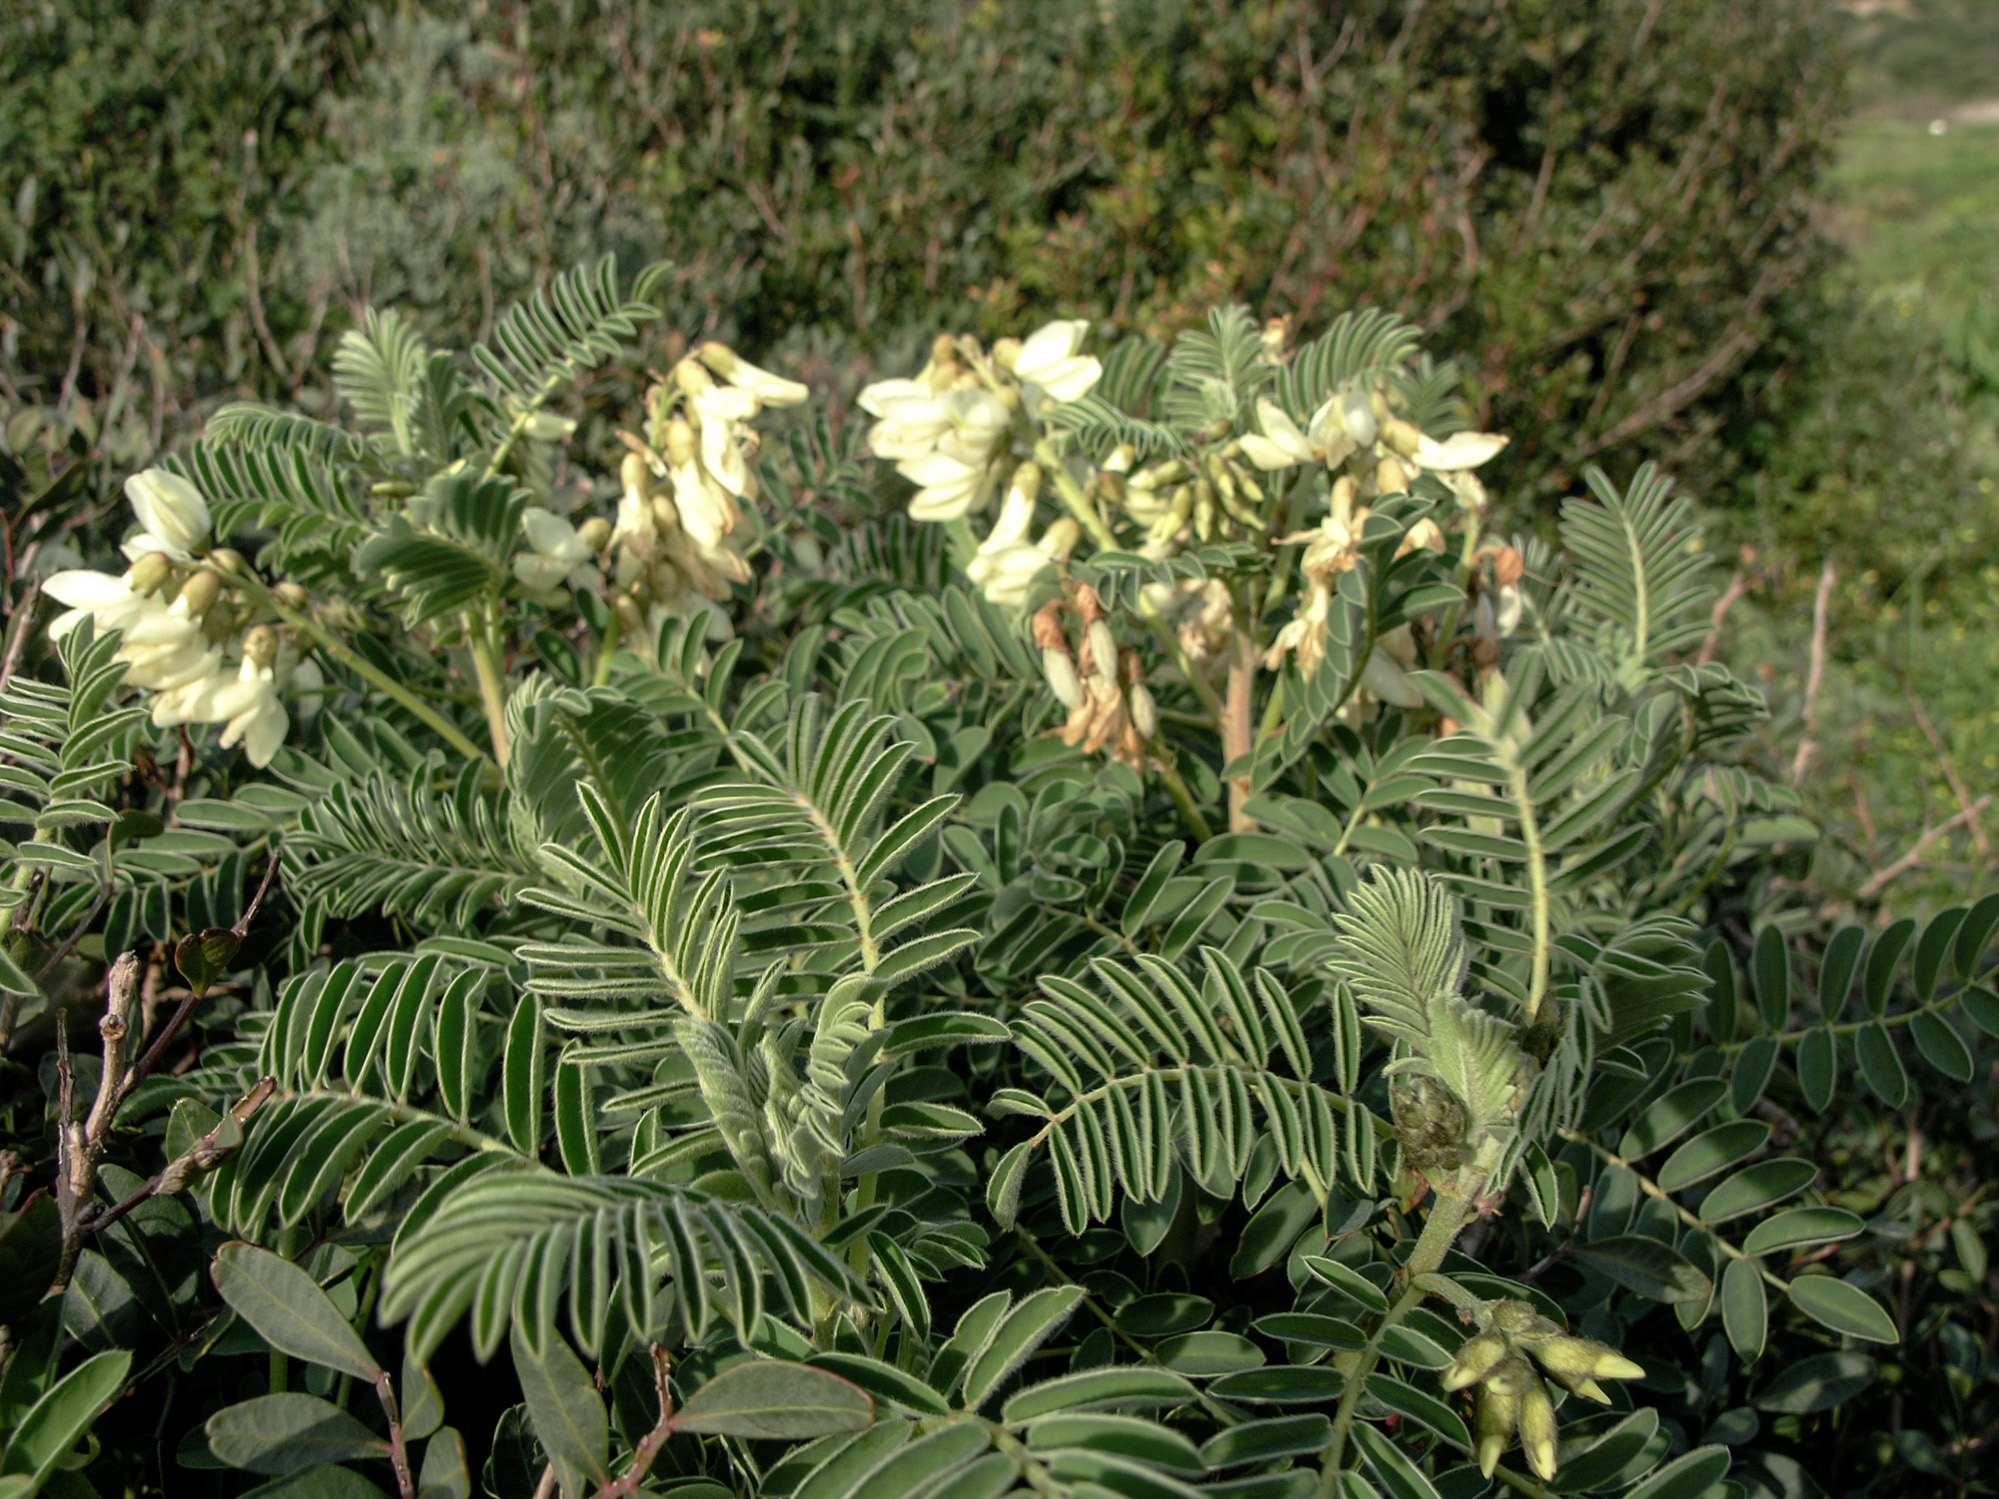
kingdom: Plantae
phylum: Tracheophyta
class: Magnoliopsida
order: Fabales
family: Fabaceae
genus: Erophaca
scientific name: Erophaca baetica
